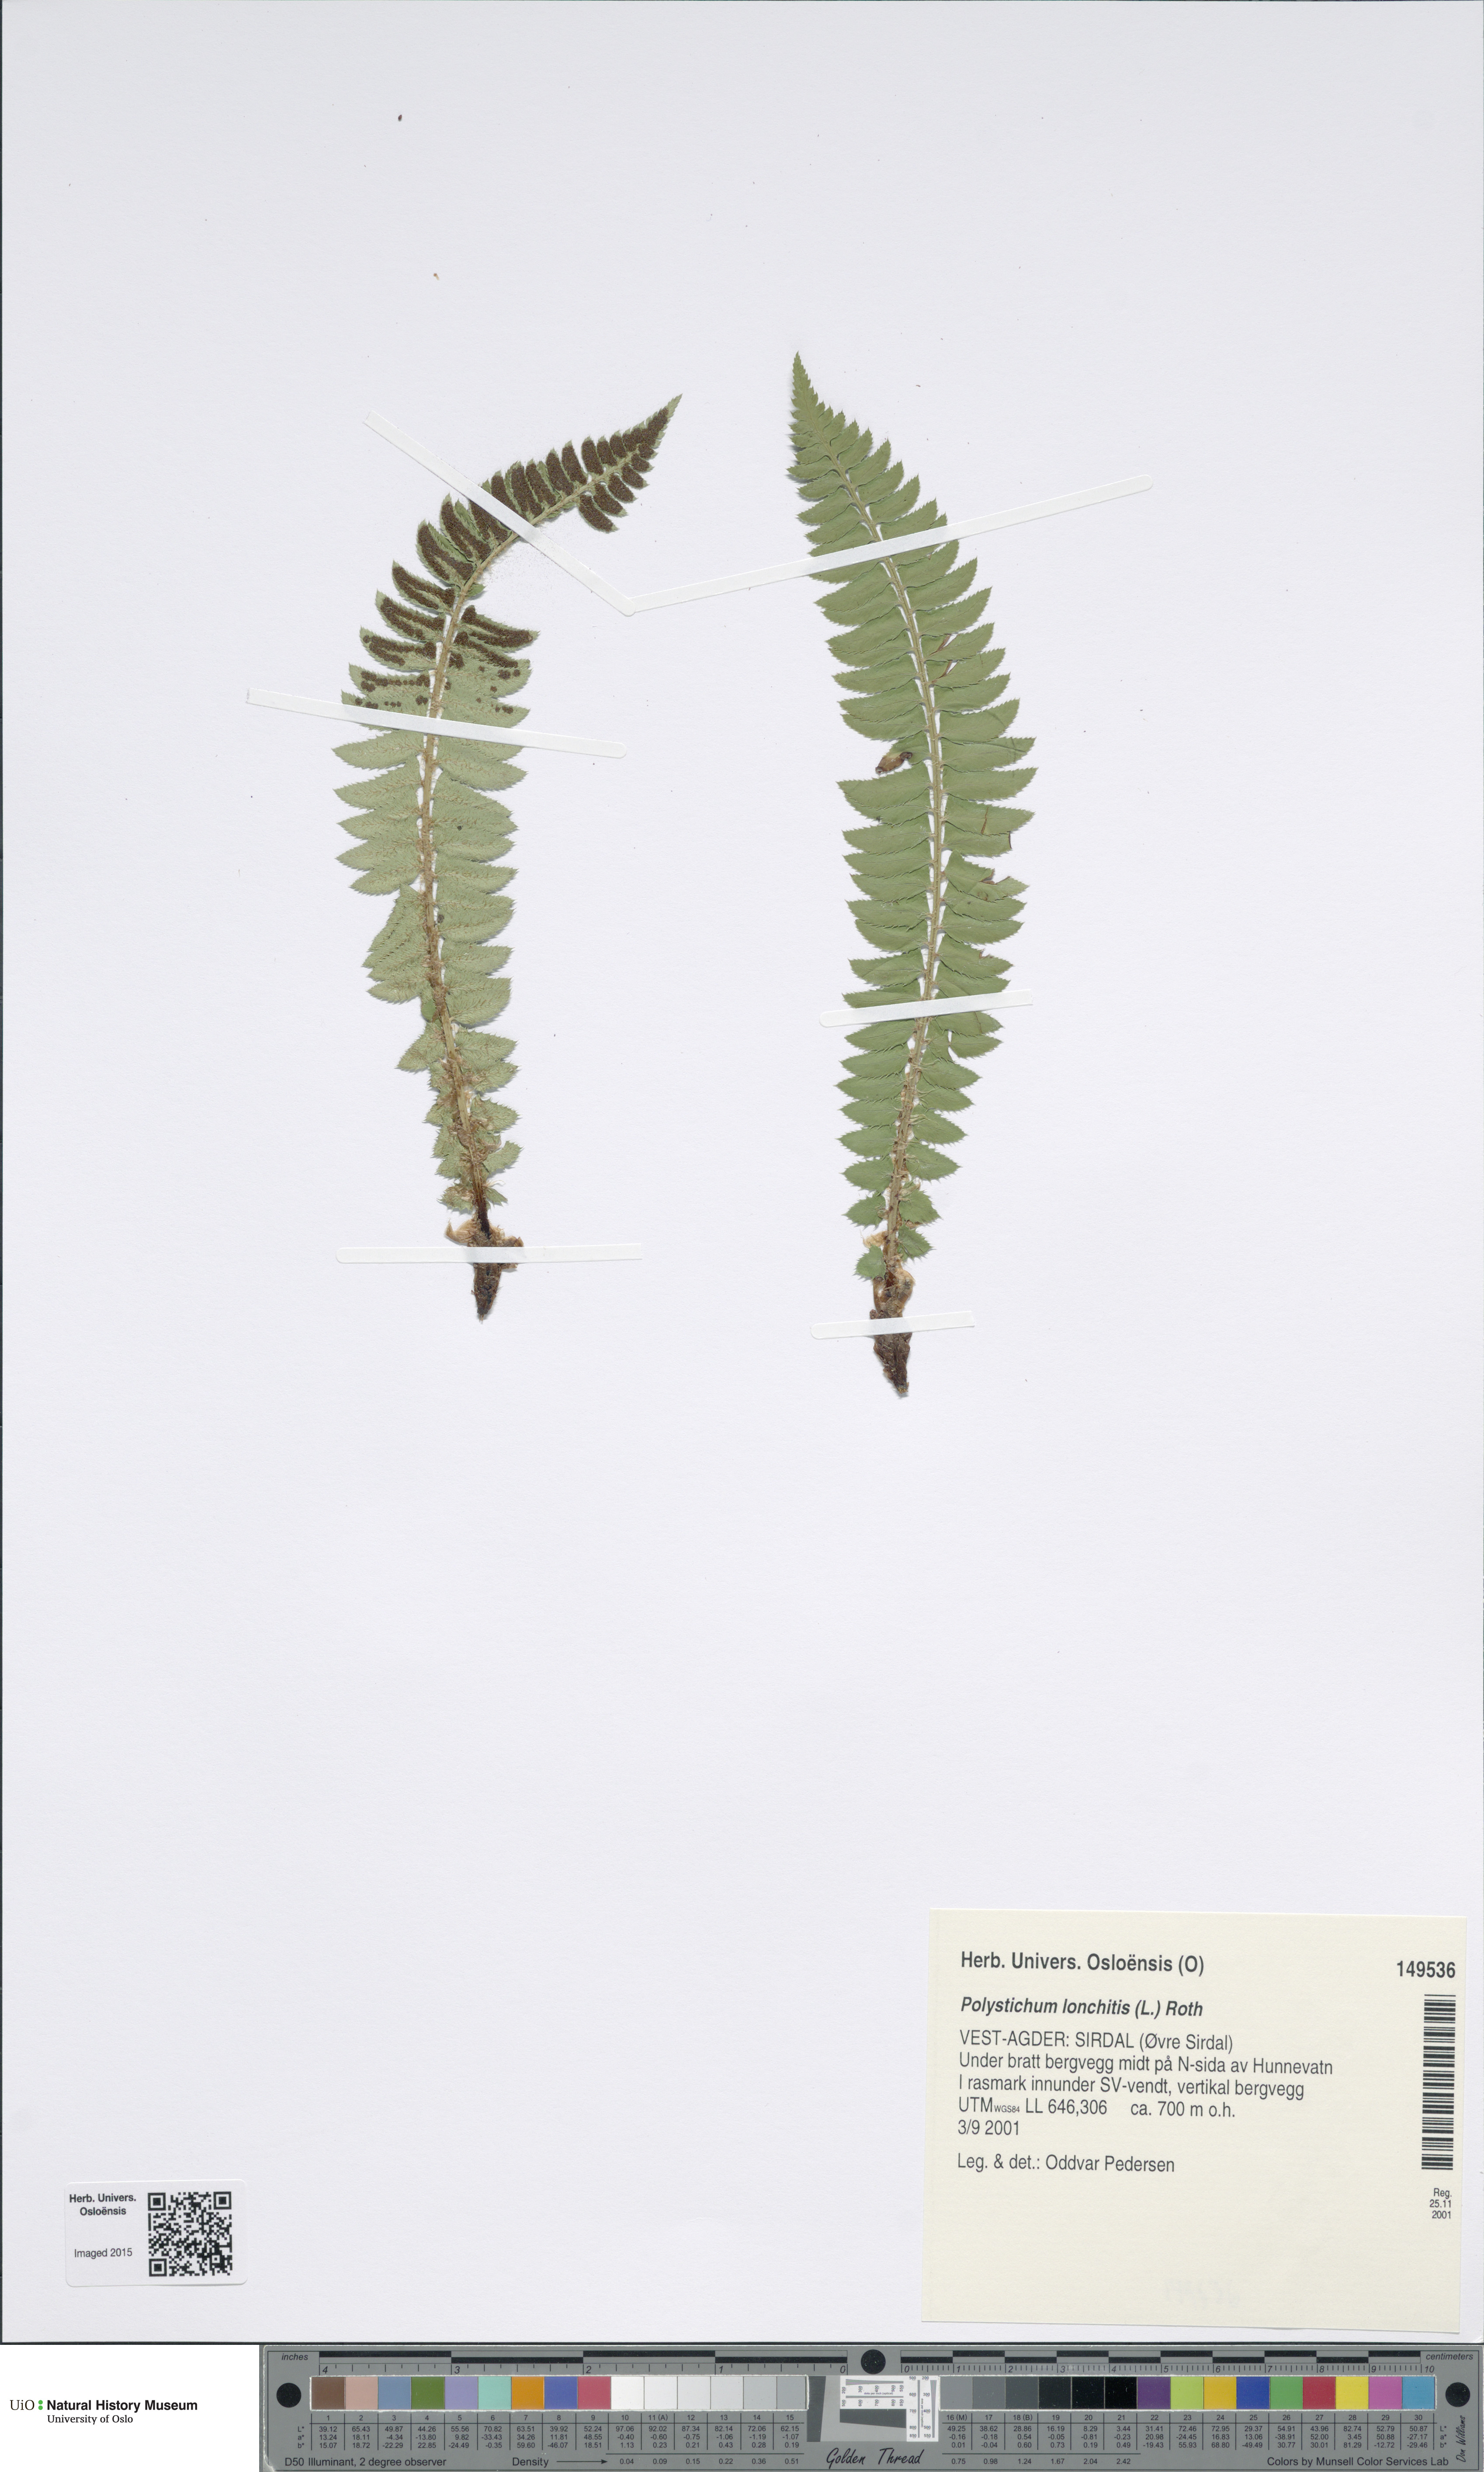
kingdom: Plantae
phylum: Tracheophyta
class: Polypodiopsida
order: Polypodiales
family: Dryopteridaceae
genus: Polystichum
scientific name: Polystichum lonchitis
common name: Holly fern
